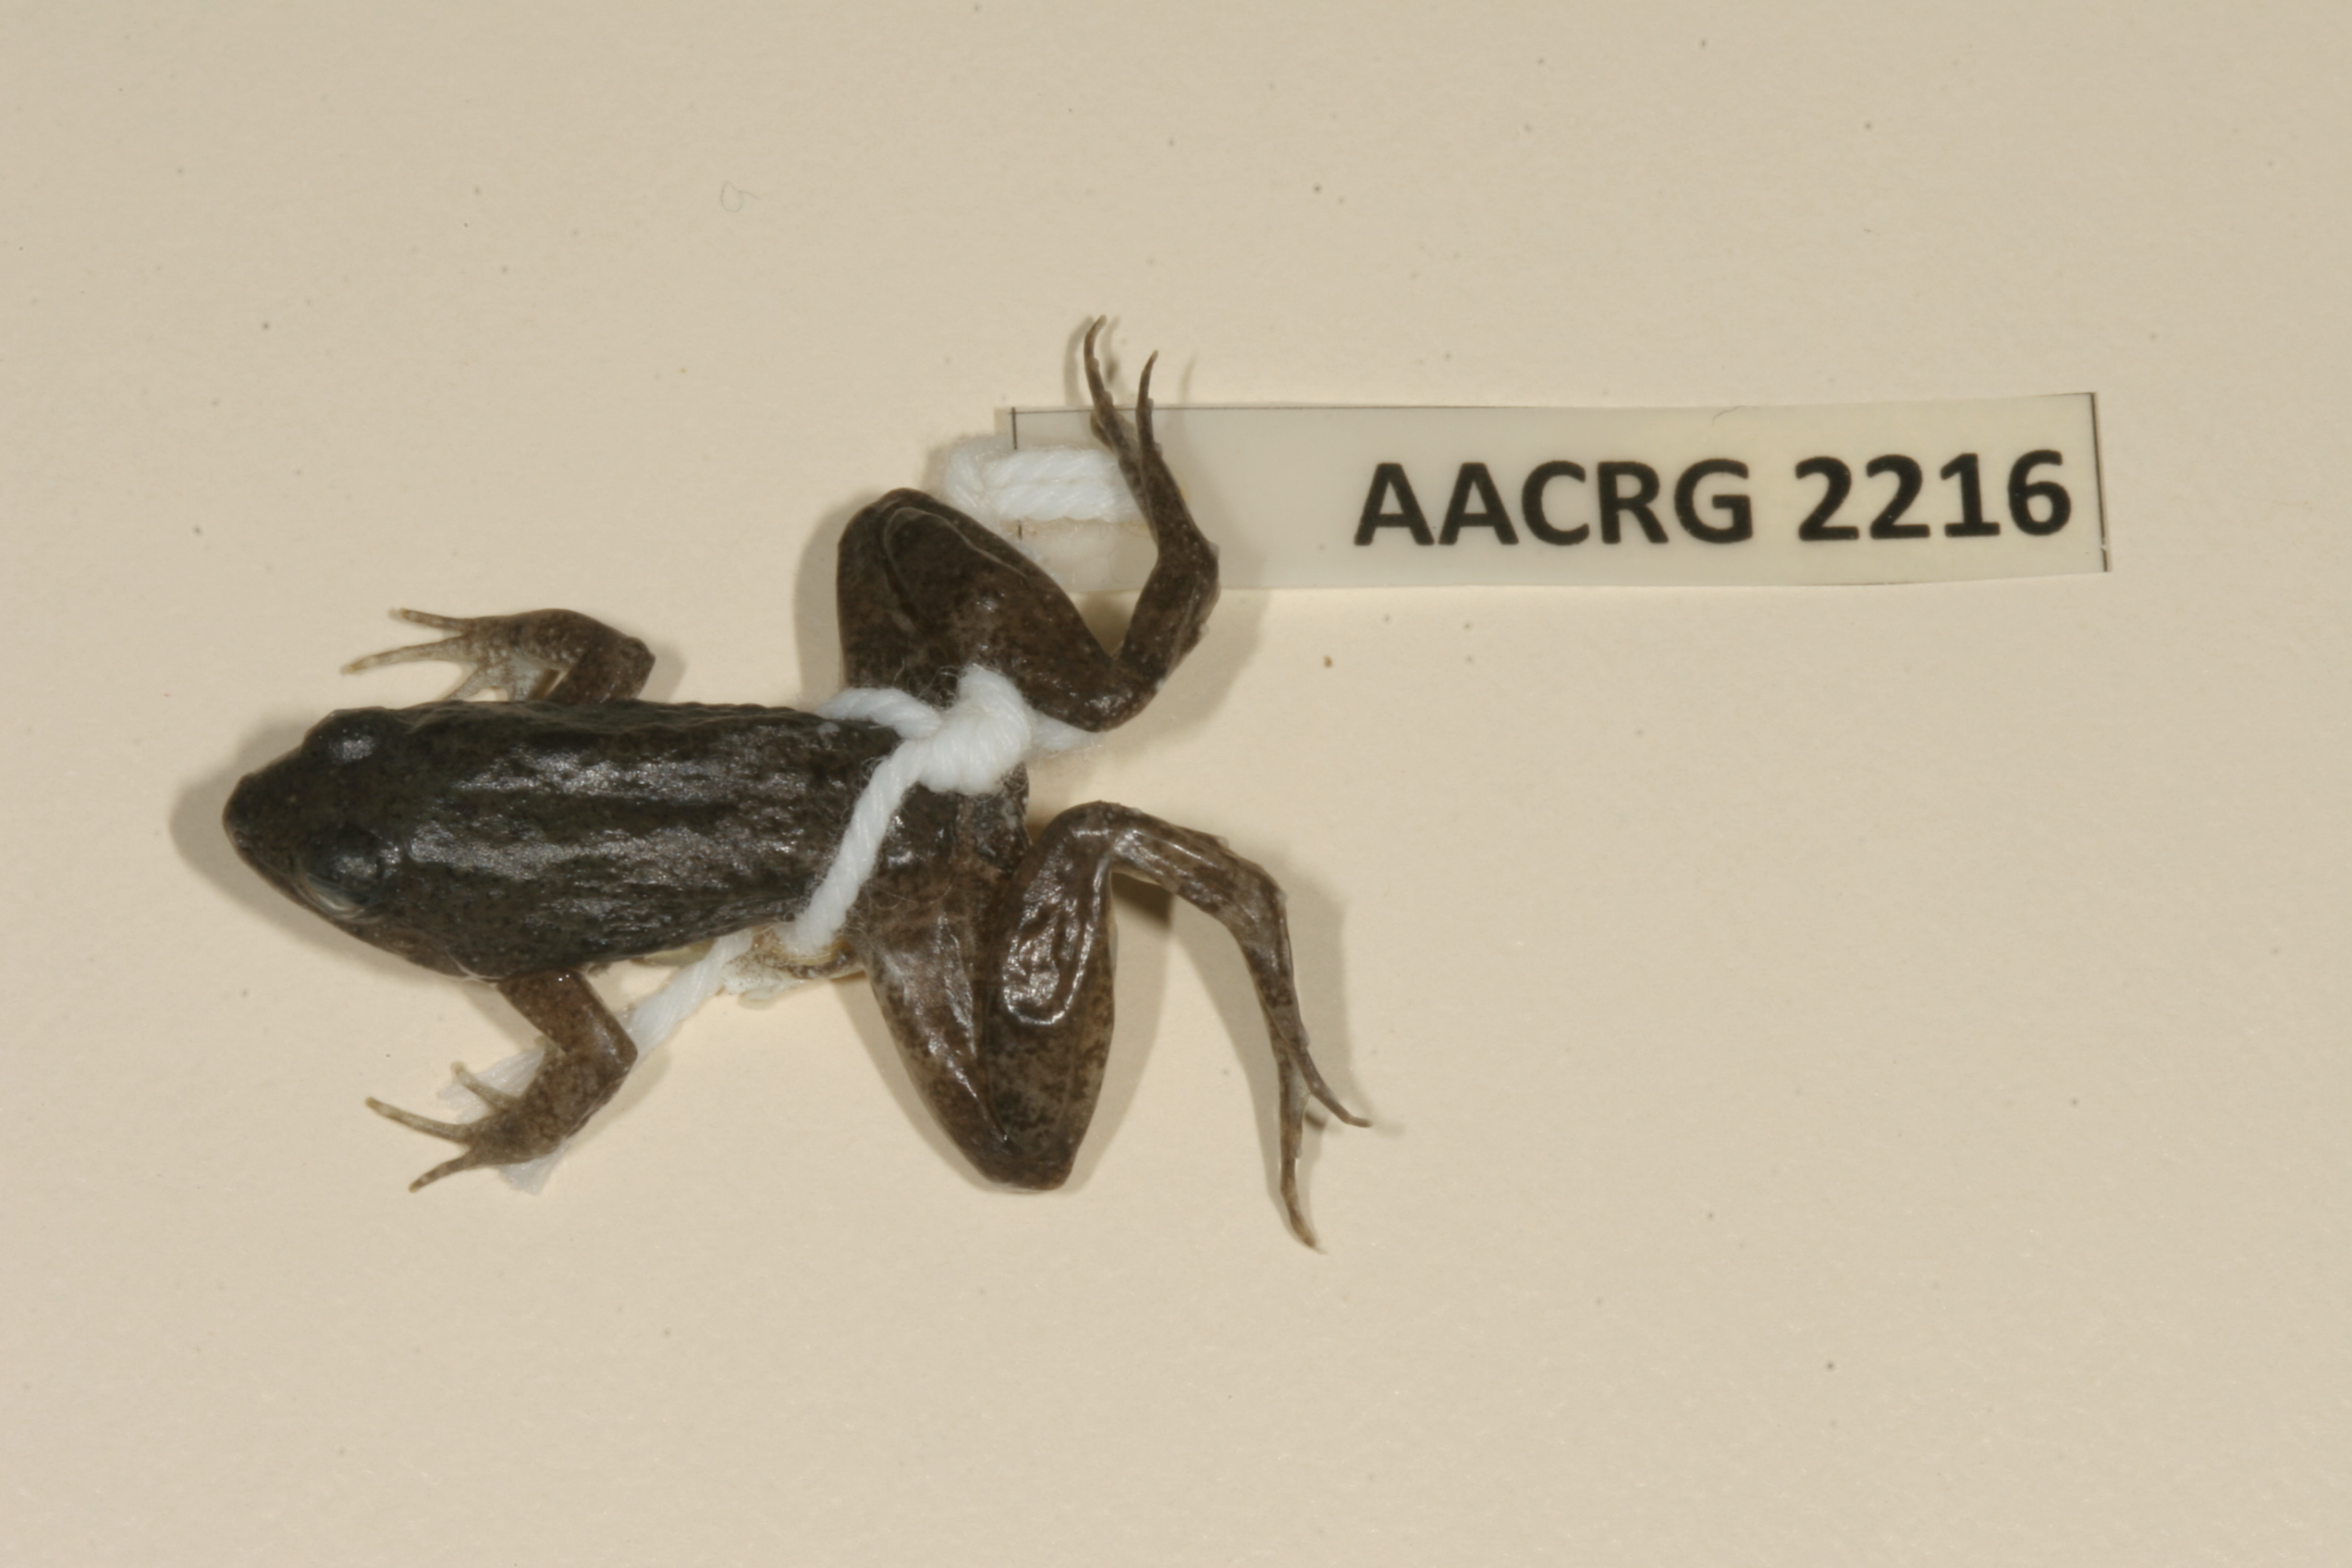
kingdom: Animalia
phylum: Chordata
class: Amphibia
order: Anura
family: Phrynobatrachidae
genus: Phrynobatrachus
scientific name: Phrynobatrachus natalensis
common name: Snoring puddle frog
